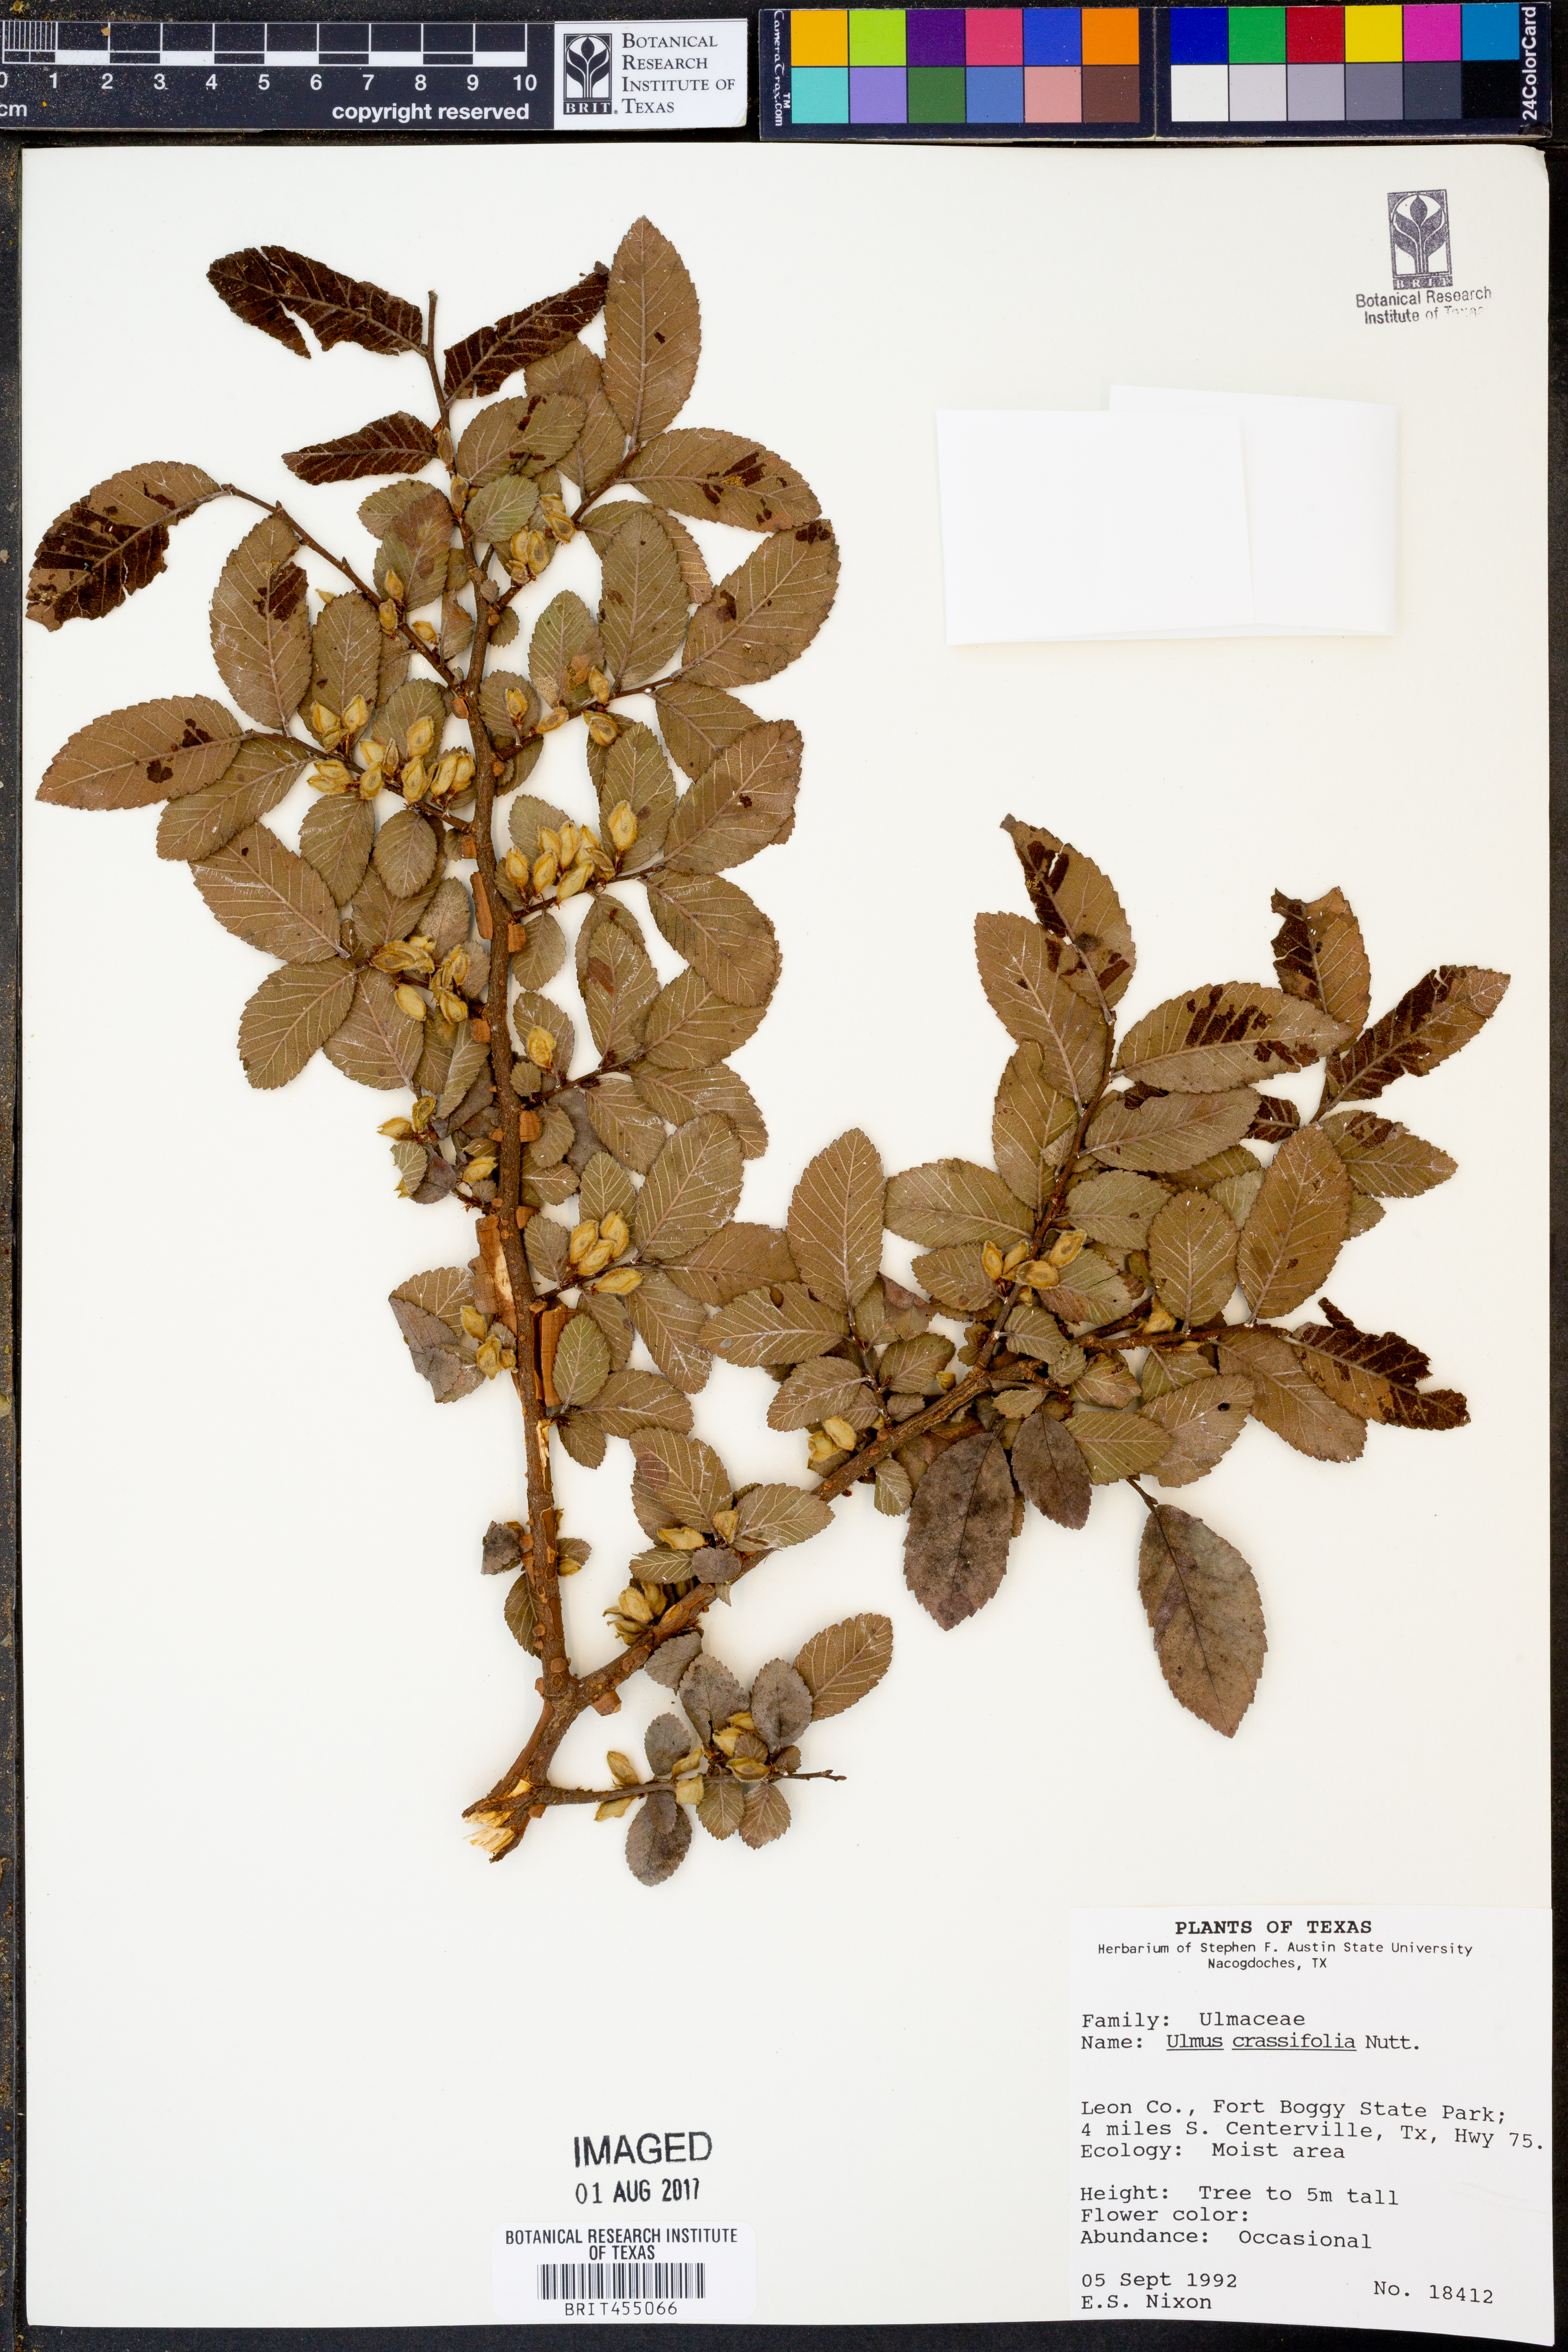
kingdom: Plantae
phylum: Tracheophyta
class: Magnoliopsida
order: Rosales
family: Ulmaceae
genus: Ulmus
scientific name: Ulmus crassifolia
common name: Basket elm
